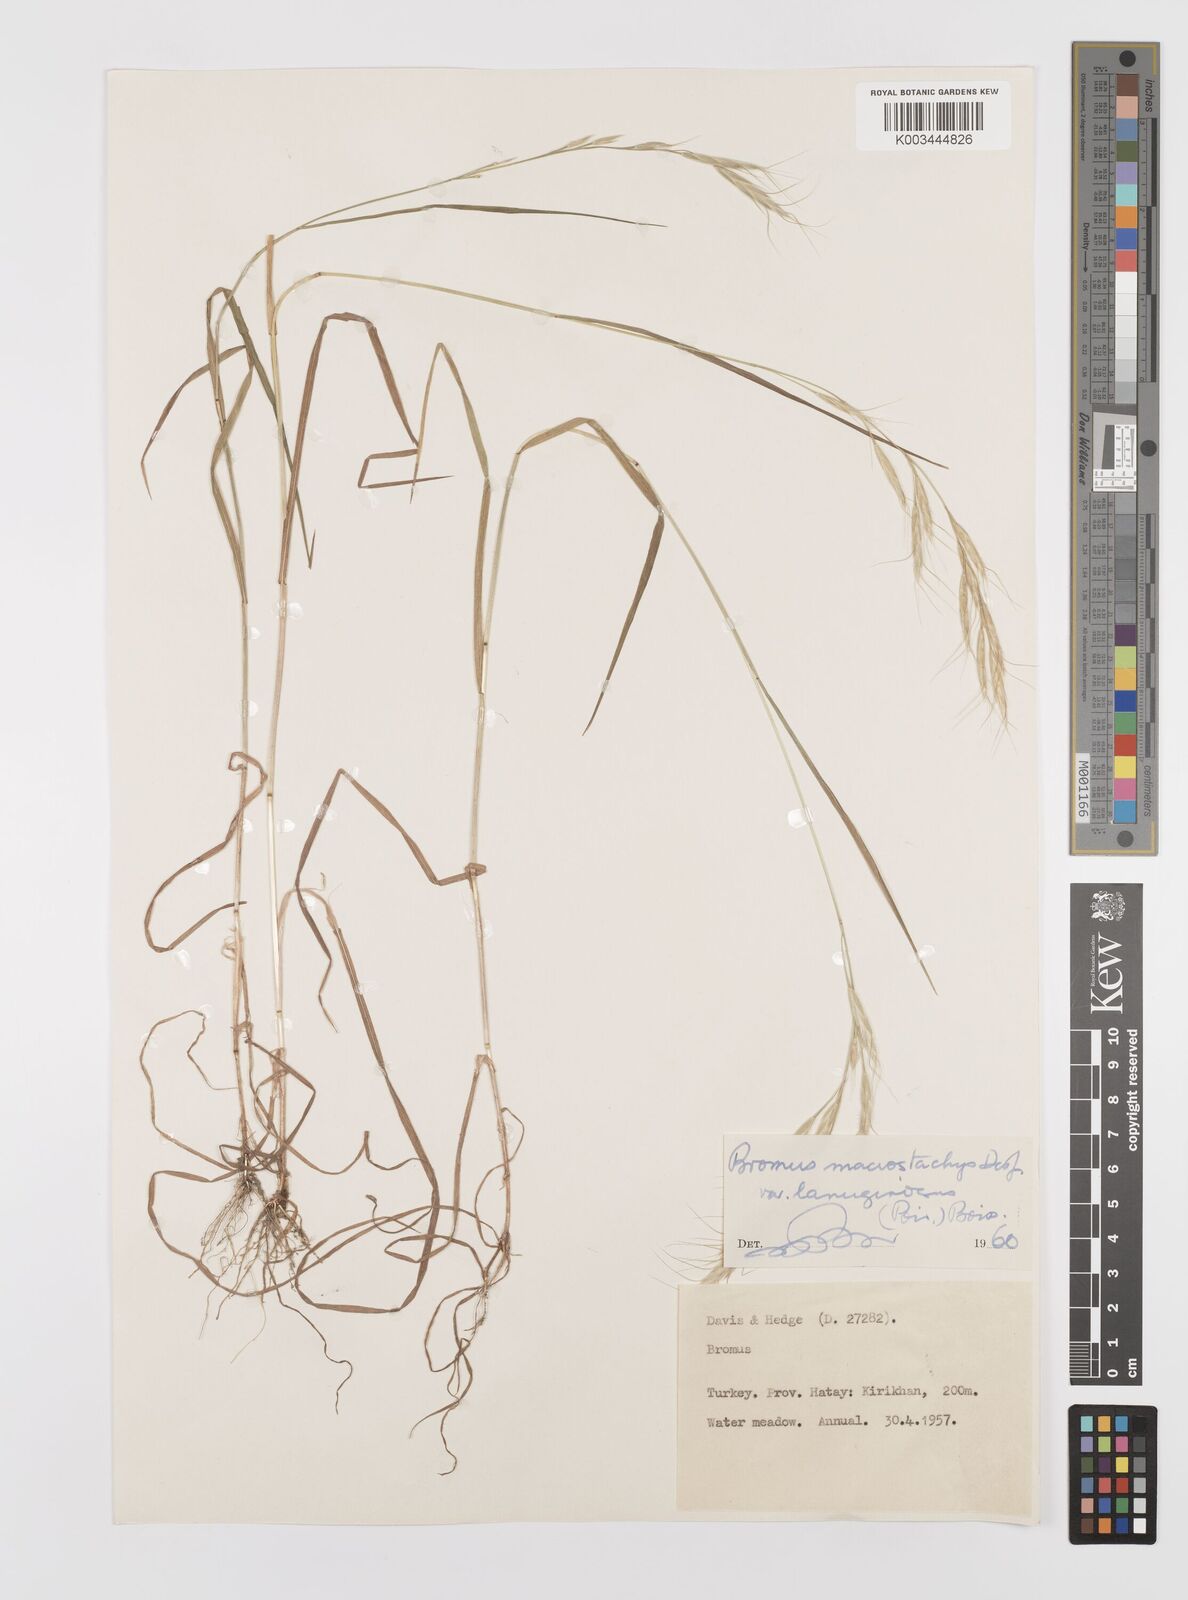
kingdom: Plantae
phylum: Tracheophyta
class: Liliopsida
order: Poales
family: Poaceae
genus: Bromus
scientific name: Bromus lanceolatus
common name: Mediterranean brome
